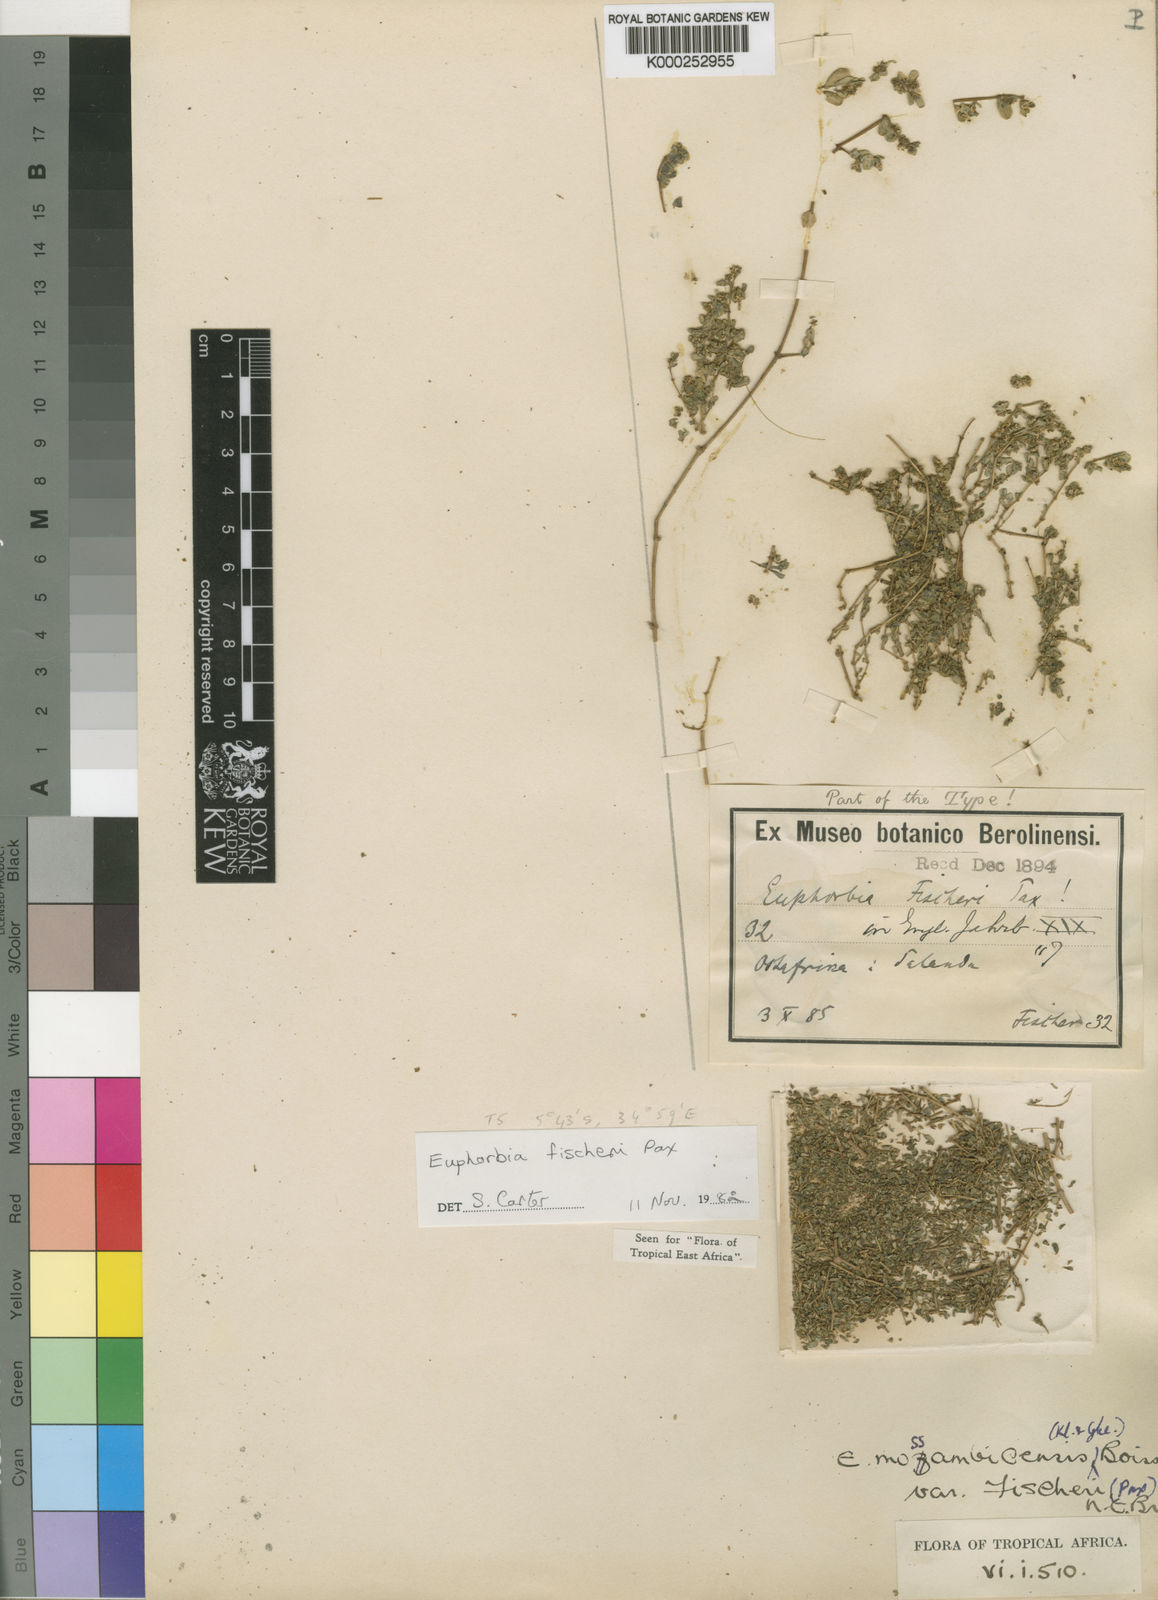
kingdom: Plantae
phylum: Tracheophyta
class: Magnoliopsida
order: Malpighiales
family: Euphorbiaceae
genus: Euphorbia
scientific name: Euphorbia fischeri
